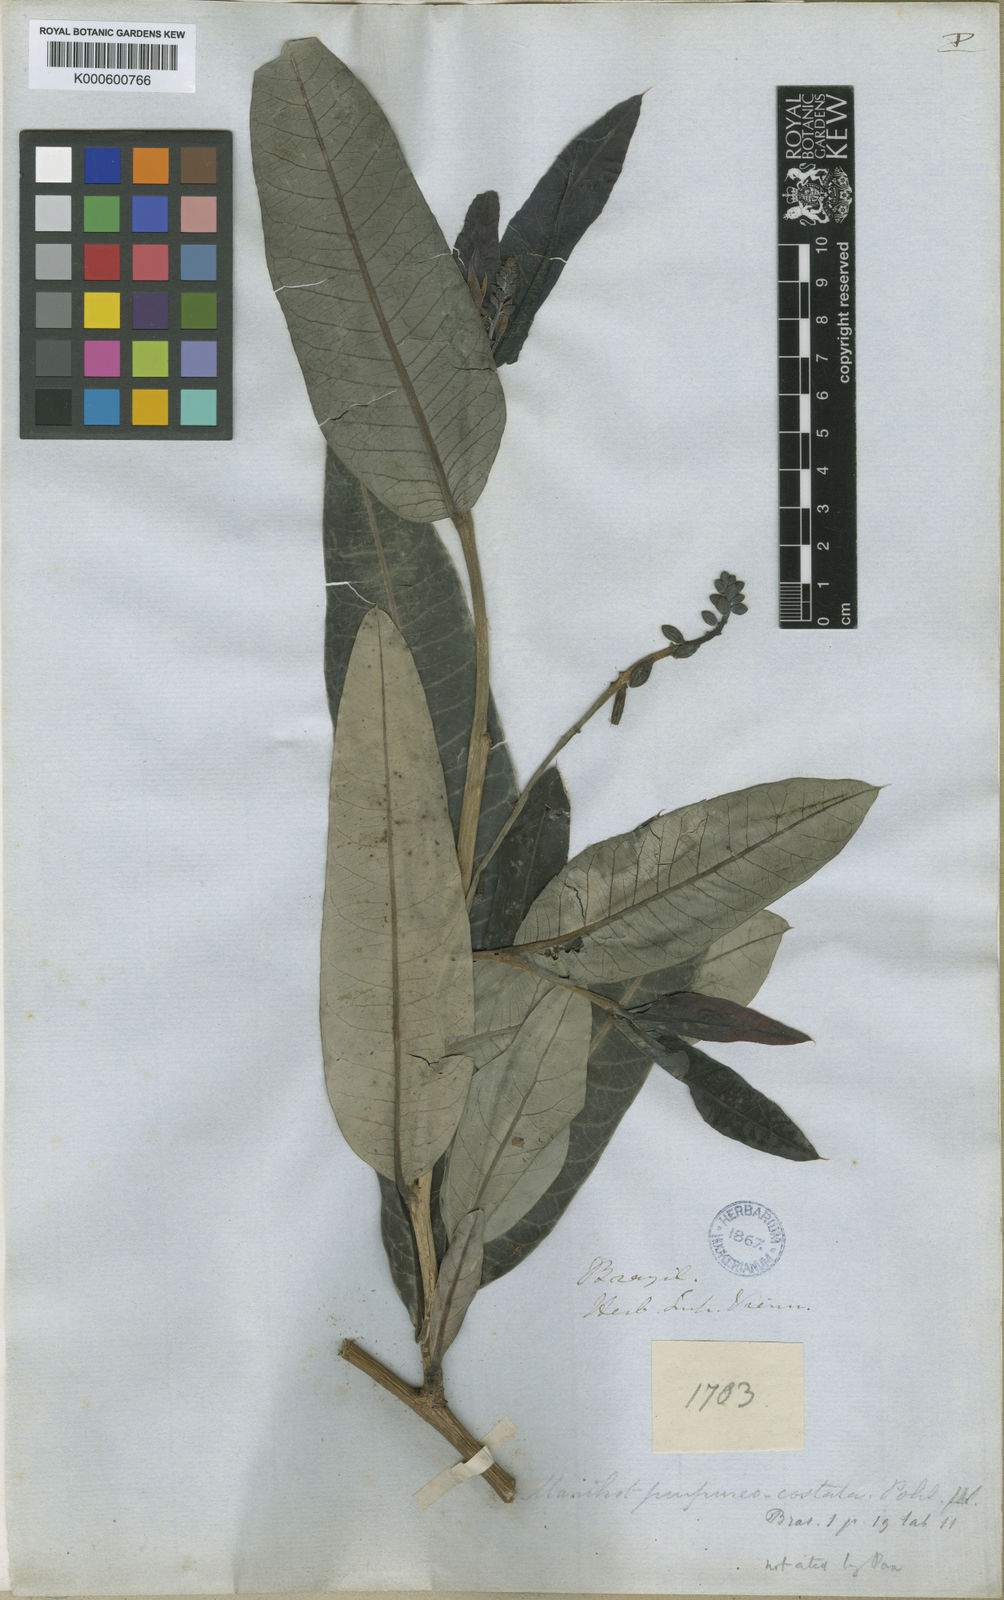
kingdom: Plantae
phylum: Tracheophyta
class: Magnoliopsida
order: Malpighiales
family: Euphorbiaceae
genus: Manihot
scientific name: Manihot purpureocostata
